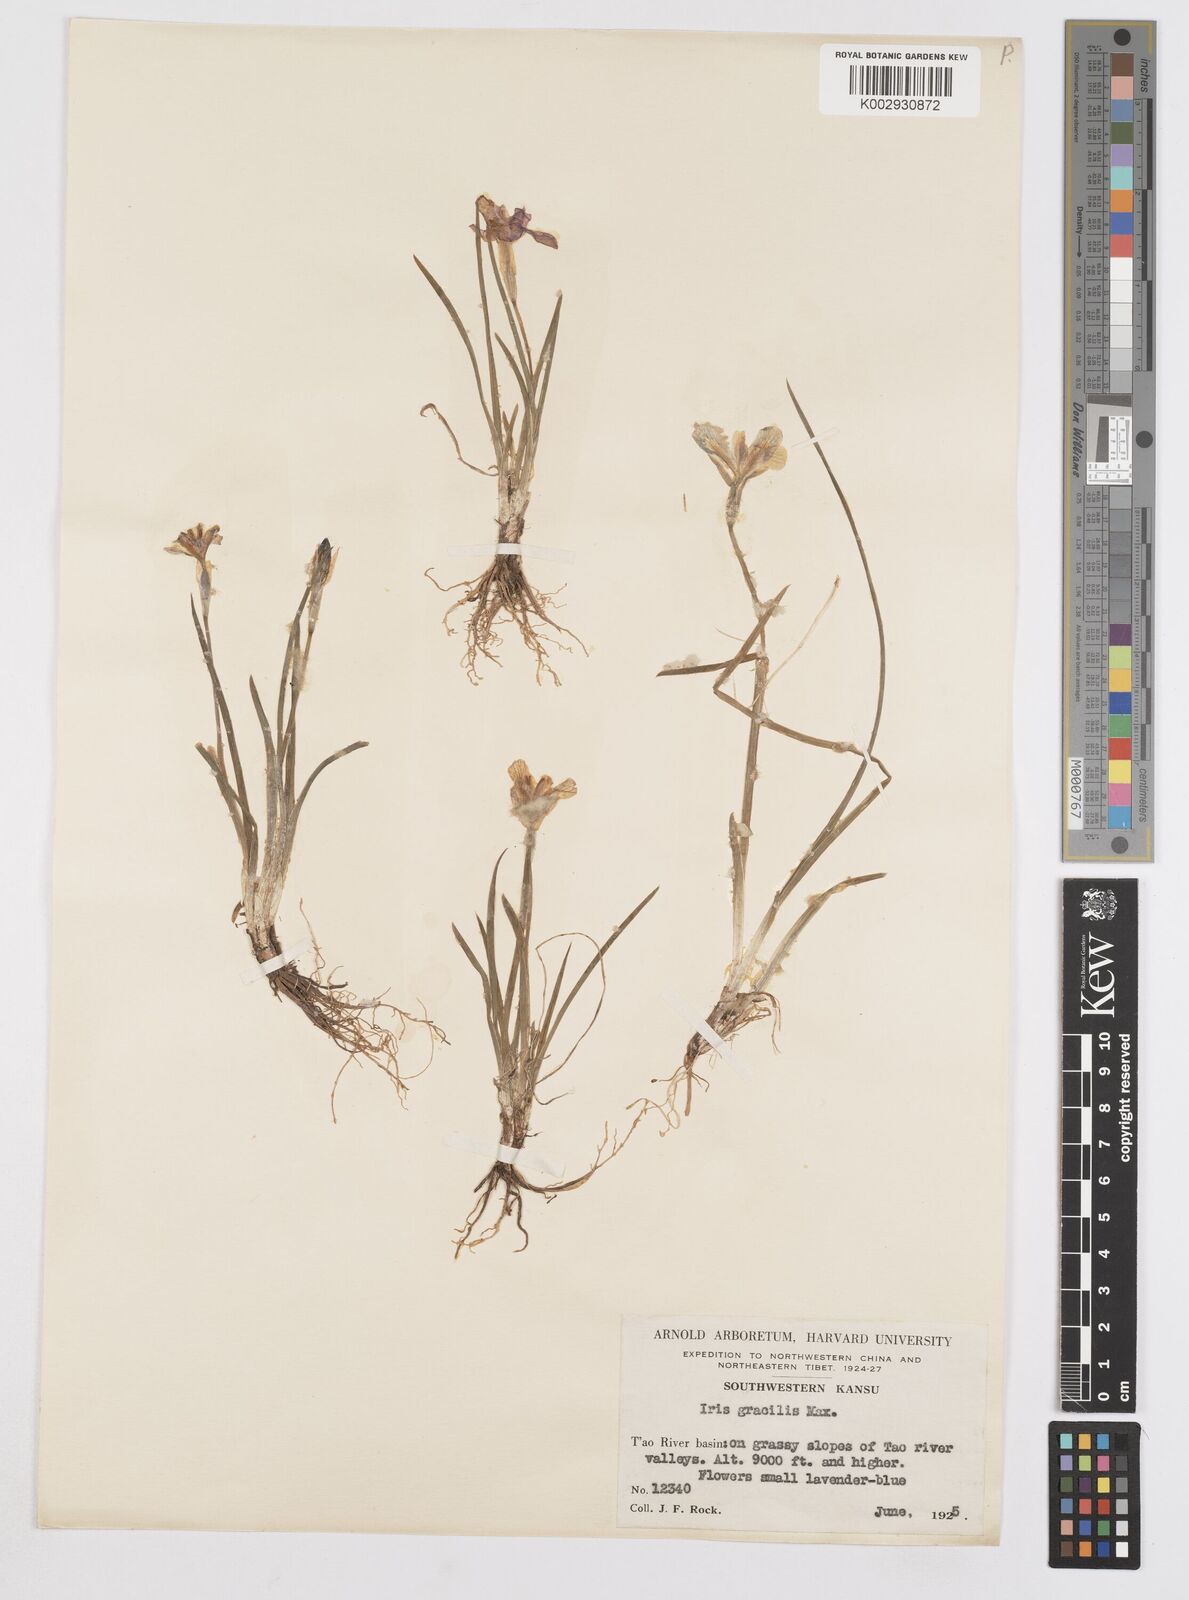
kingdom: Plantae
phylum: Tracheophyta
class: Liliopsida
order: Asparagales
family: Iridaceae
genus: Iris
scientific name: Iris goniocarpa
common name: Angular-fruit iris
